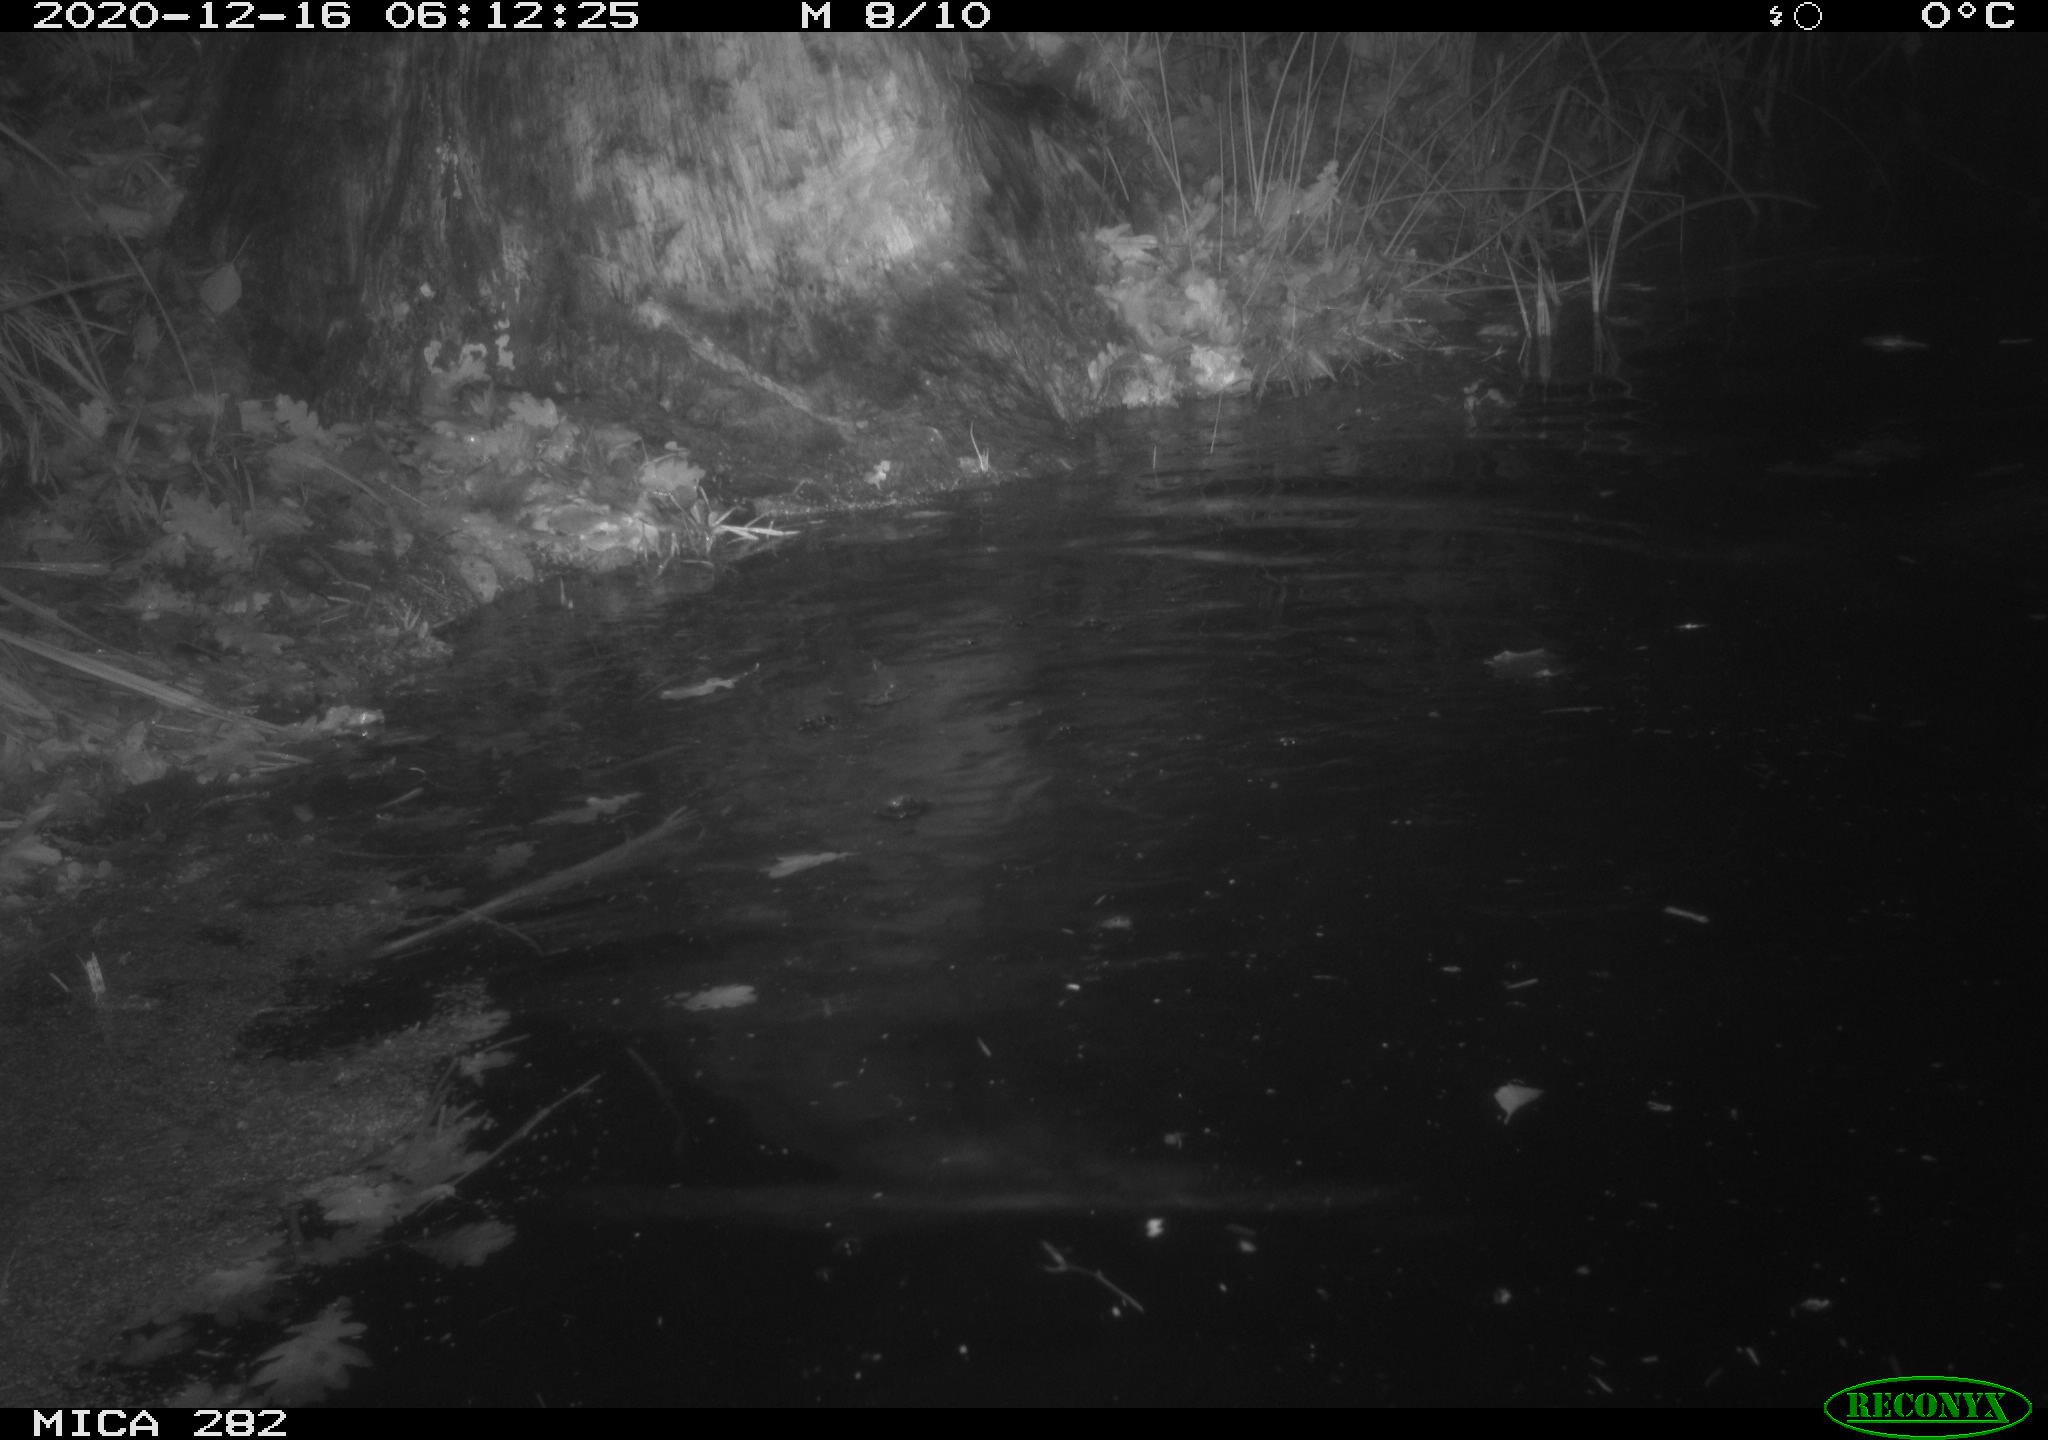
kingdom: Animalia
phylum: Chordata
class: Mammalia
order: Rodentia
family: Castoridae
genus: Castor
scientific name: Castor fiber
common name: Eurasian beaver
